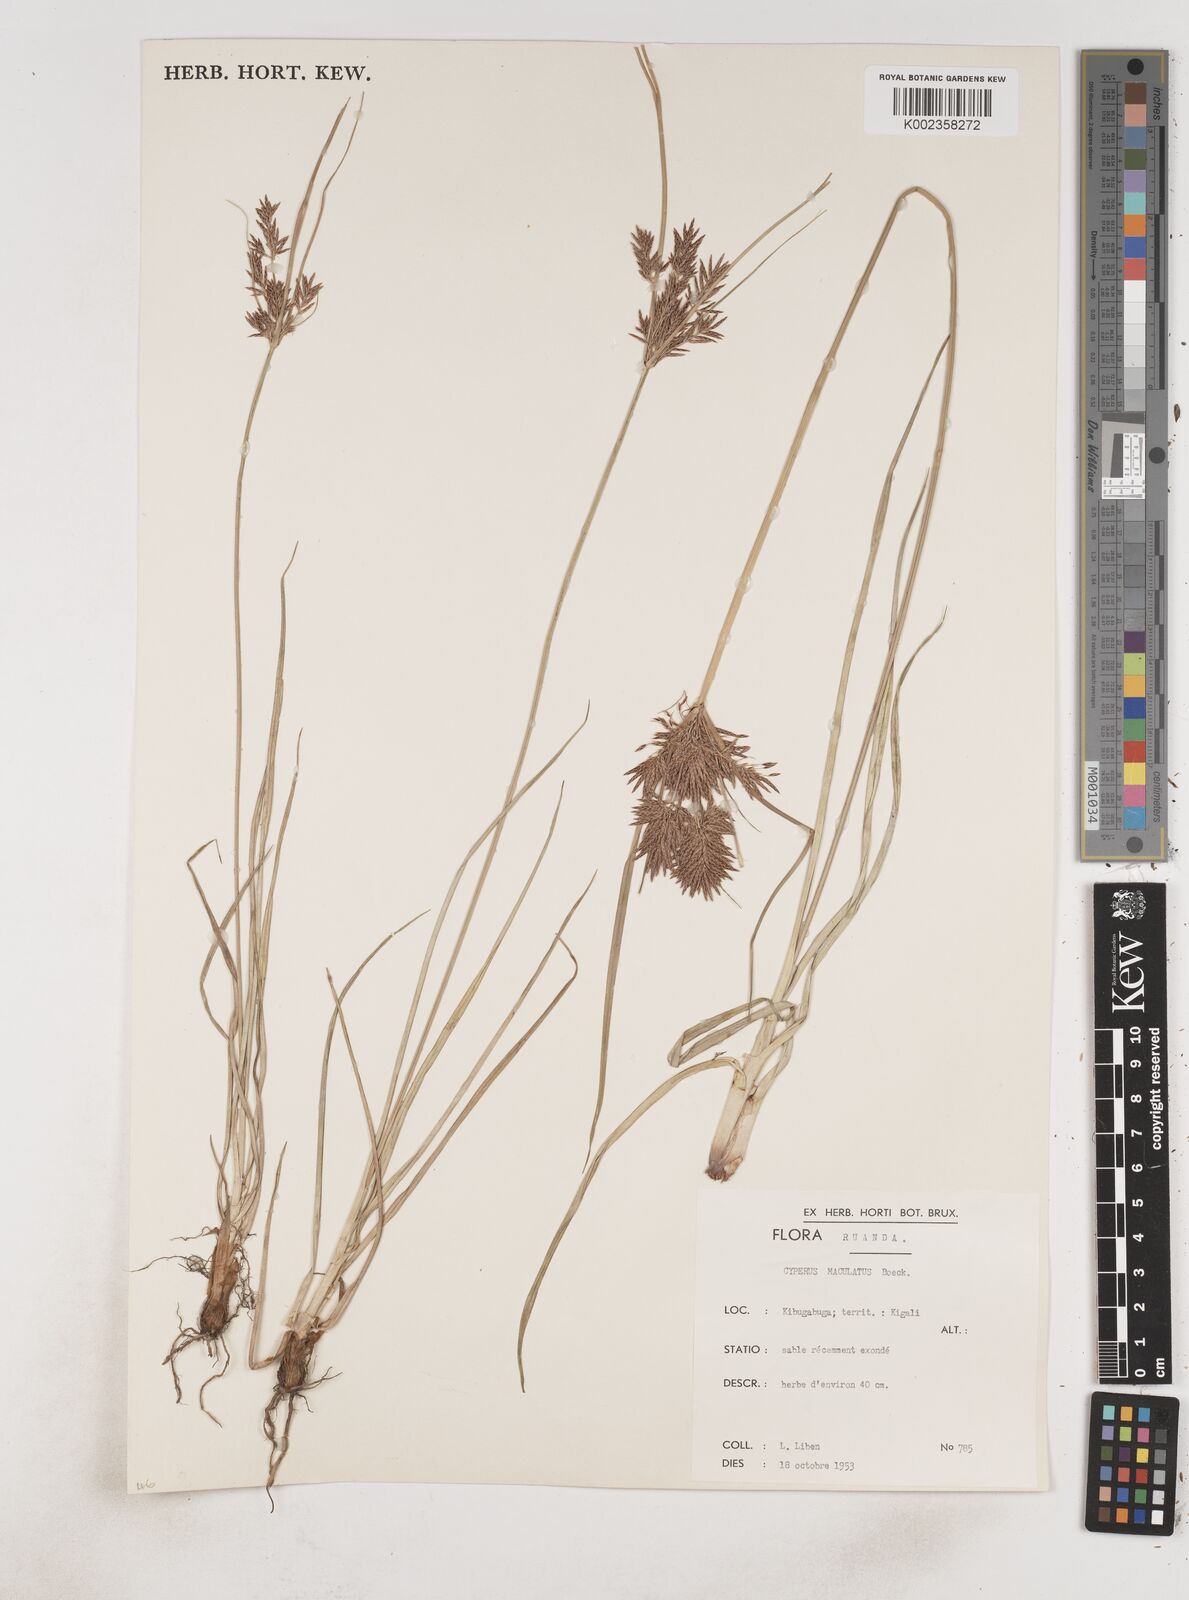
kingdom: Plantae
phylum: Tracheophyta
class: Liliopsida
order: Poales
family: Cyperaceae
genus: Cyperus
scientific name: Cyperus maculatus
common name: Maculated sedge
